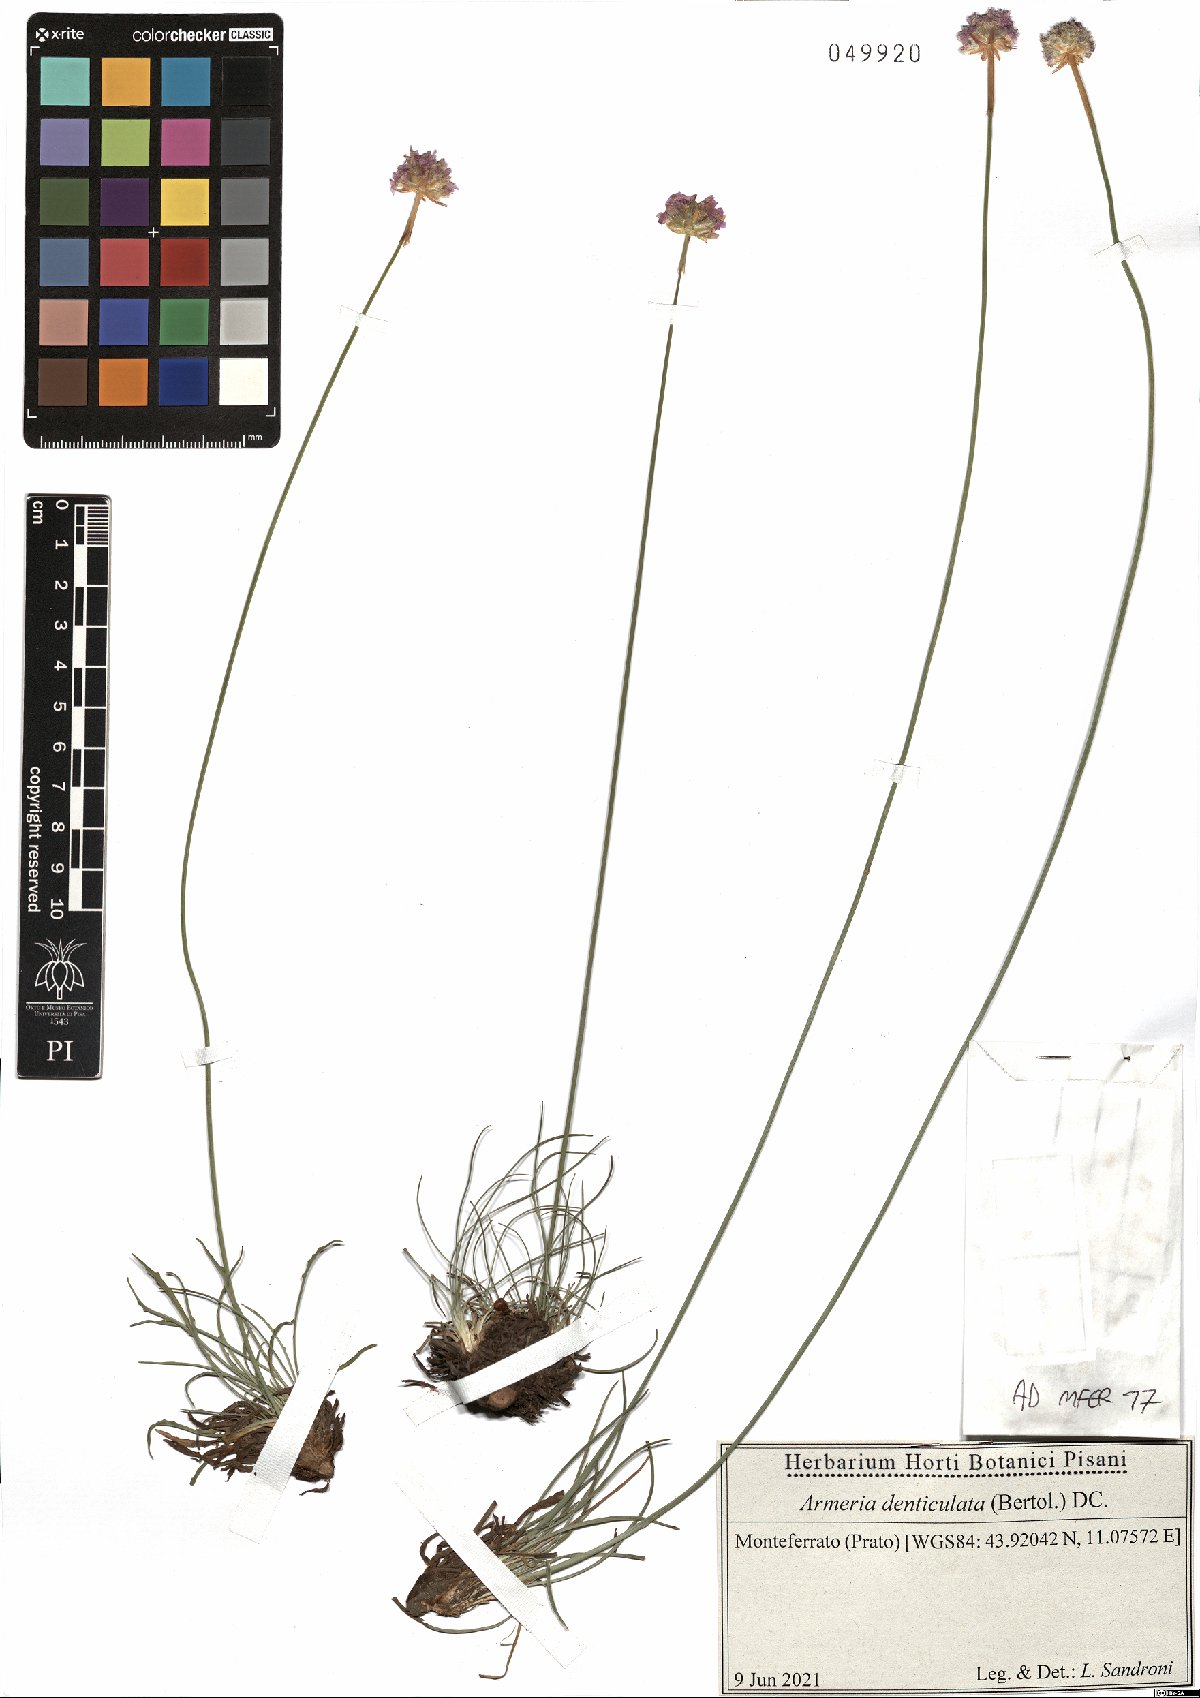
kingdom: Plantae
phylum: Tracheophyta
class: Magnoliopsida
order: Caryophyllales
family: Plumbaginaceae
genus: Armeria
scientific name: Armeria denticulata
